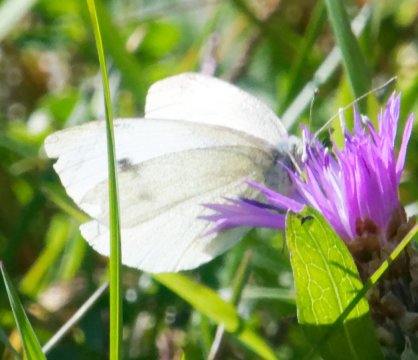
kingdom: Animalia
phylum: Arthropoda
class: Insecta
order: Lepidoptera
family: Pieridae
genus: Pieris
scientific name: Pieris rapae
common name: Cabbage White
